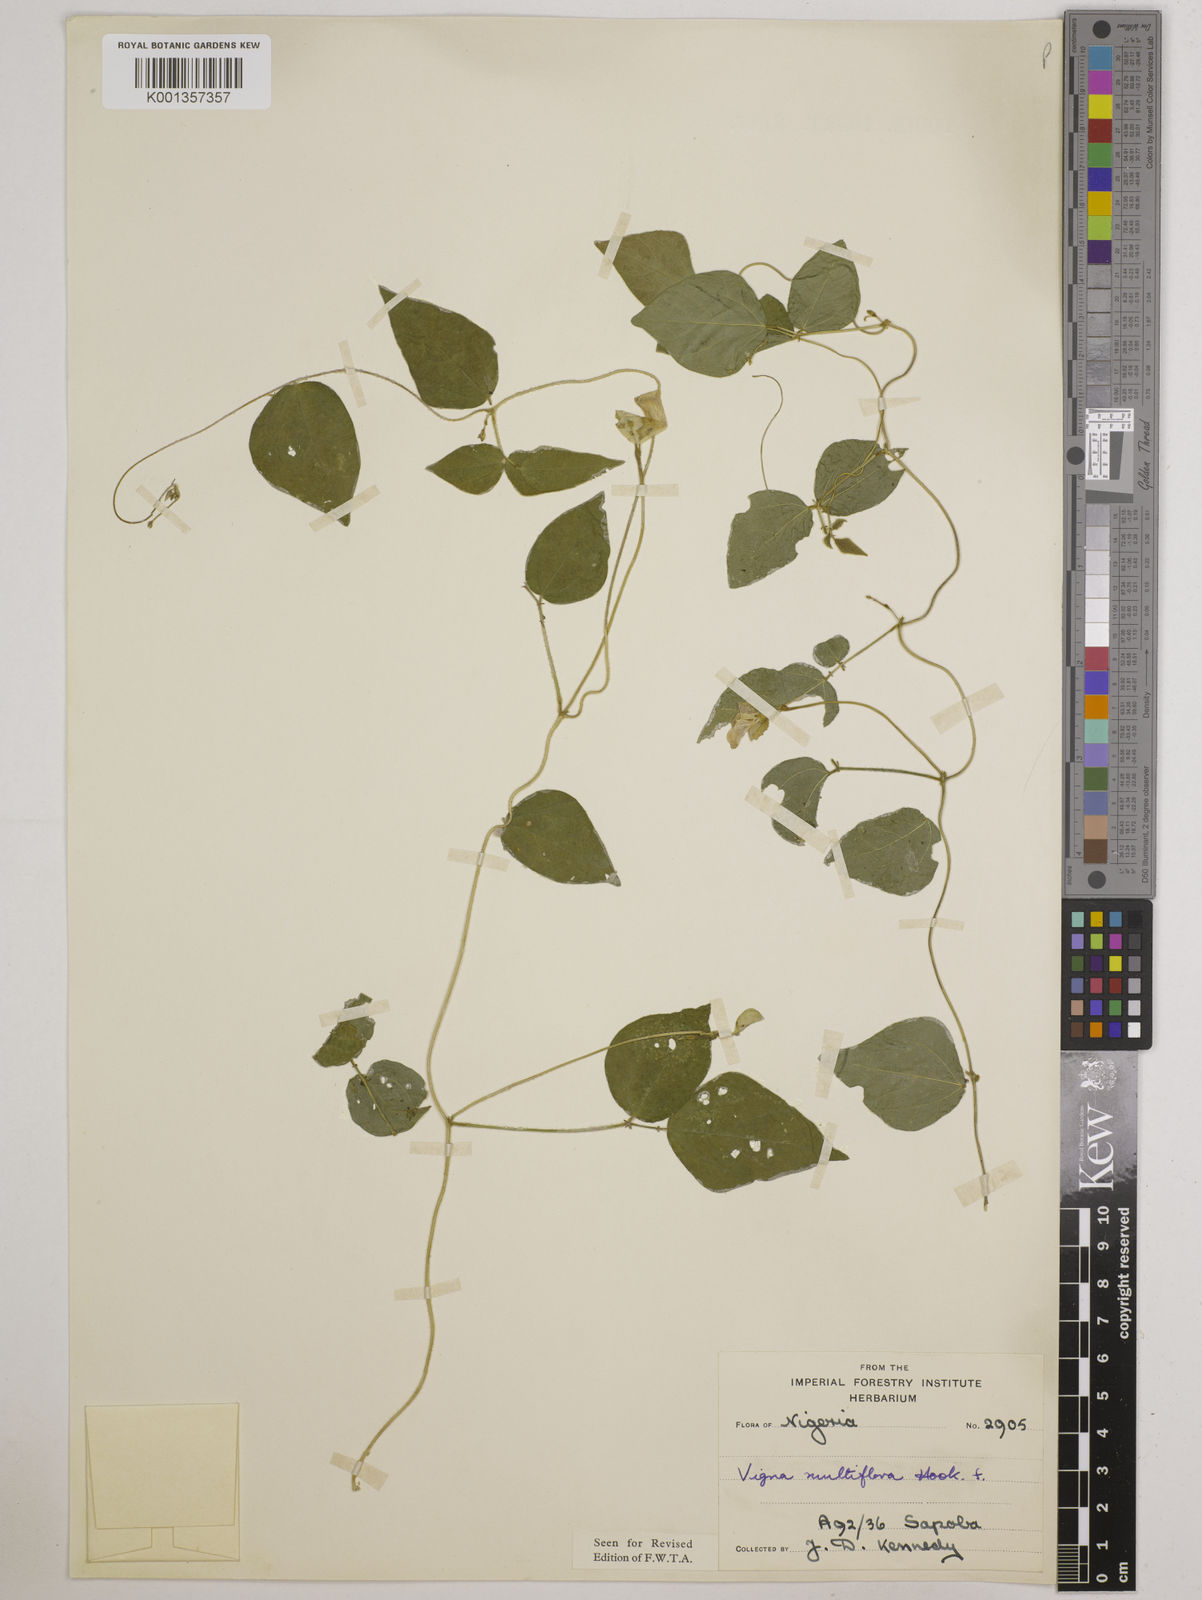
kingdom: Plantae
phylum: Tracheophyta
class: Magnoliopsida
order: Fabales
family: Fabaceae
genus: Vigna
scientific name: Vigna gracilis
